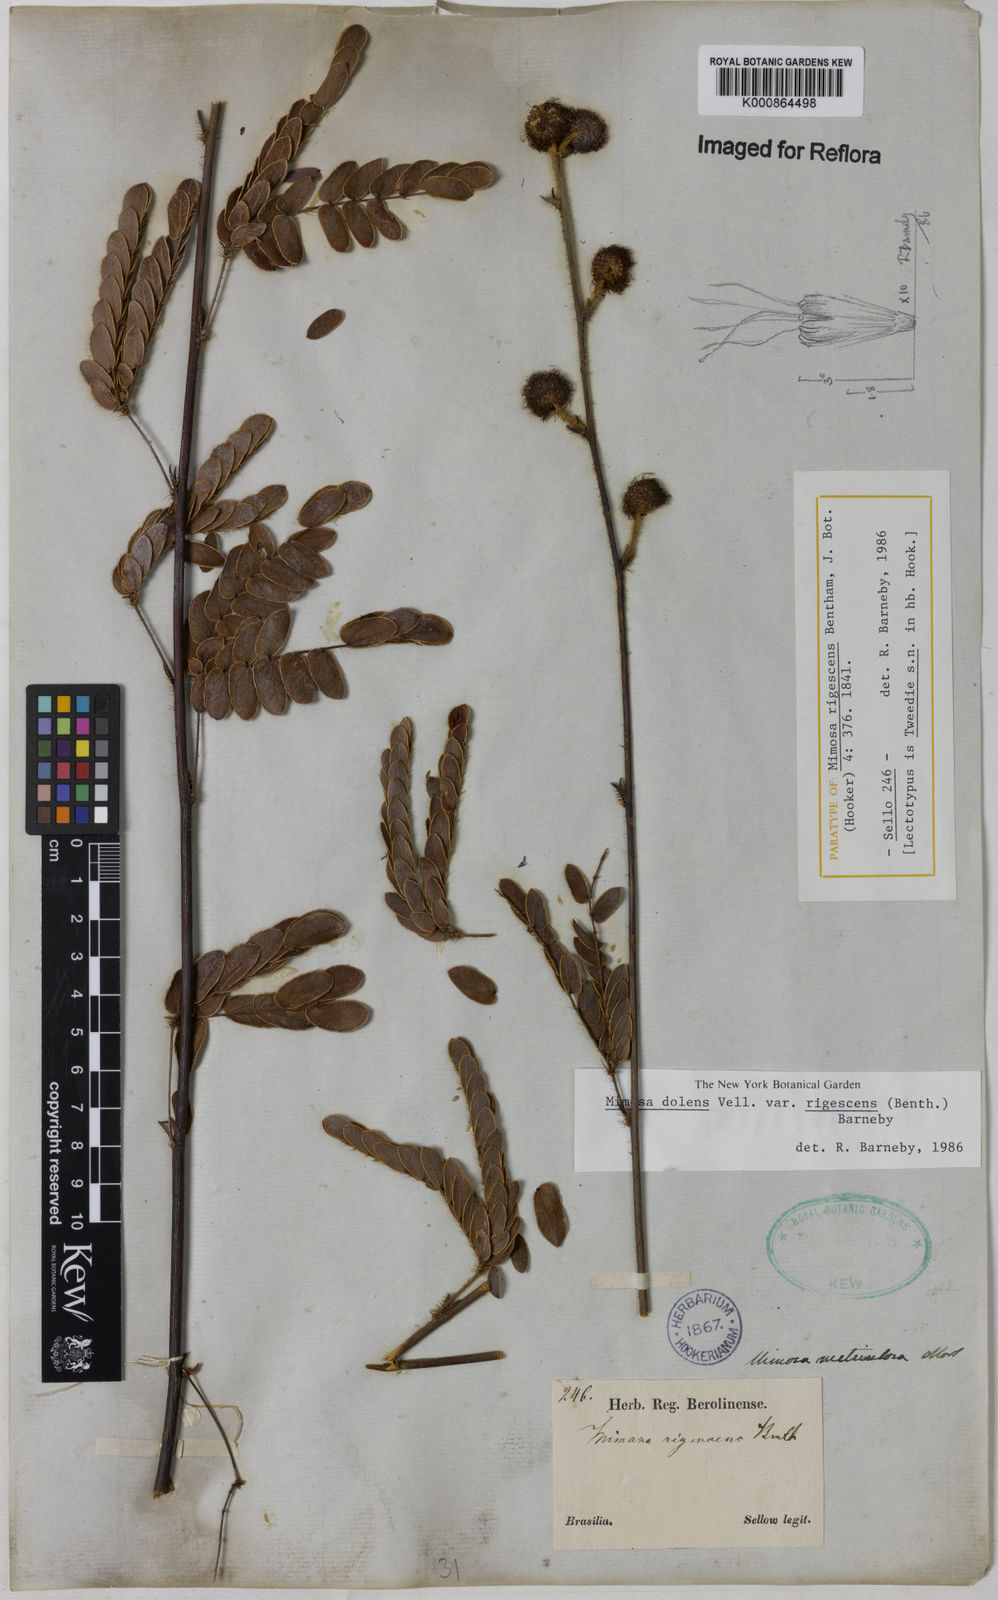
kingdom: Plantae
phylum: Tracheophyta
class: Magnoliopsida
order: Fabales
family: Fabaceae
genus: Mimosa
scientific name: Mimosa dolens
